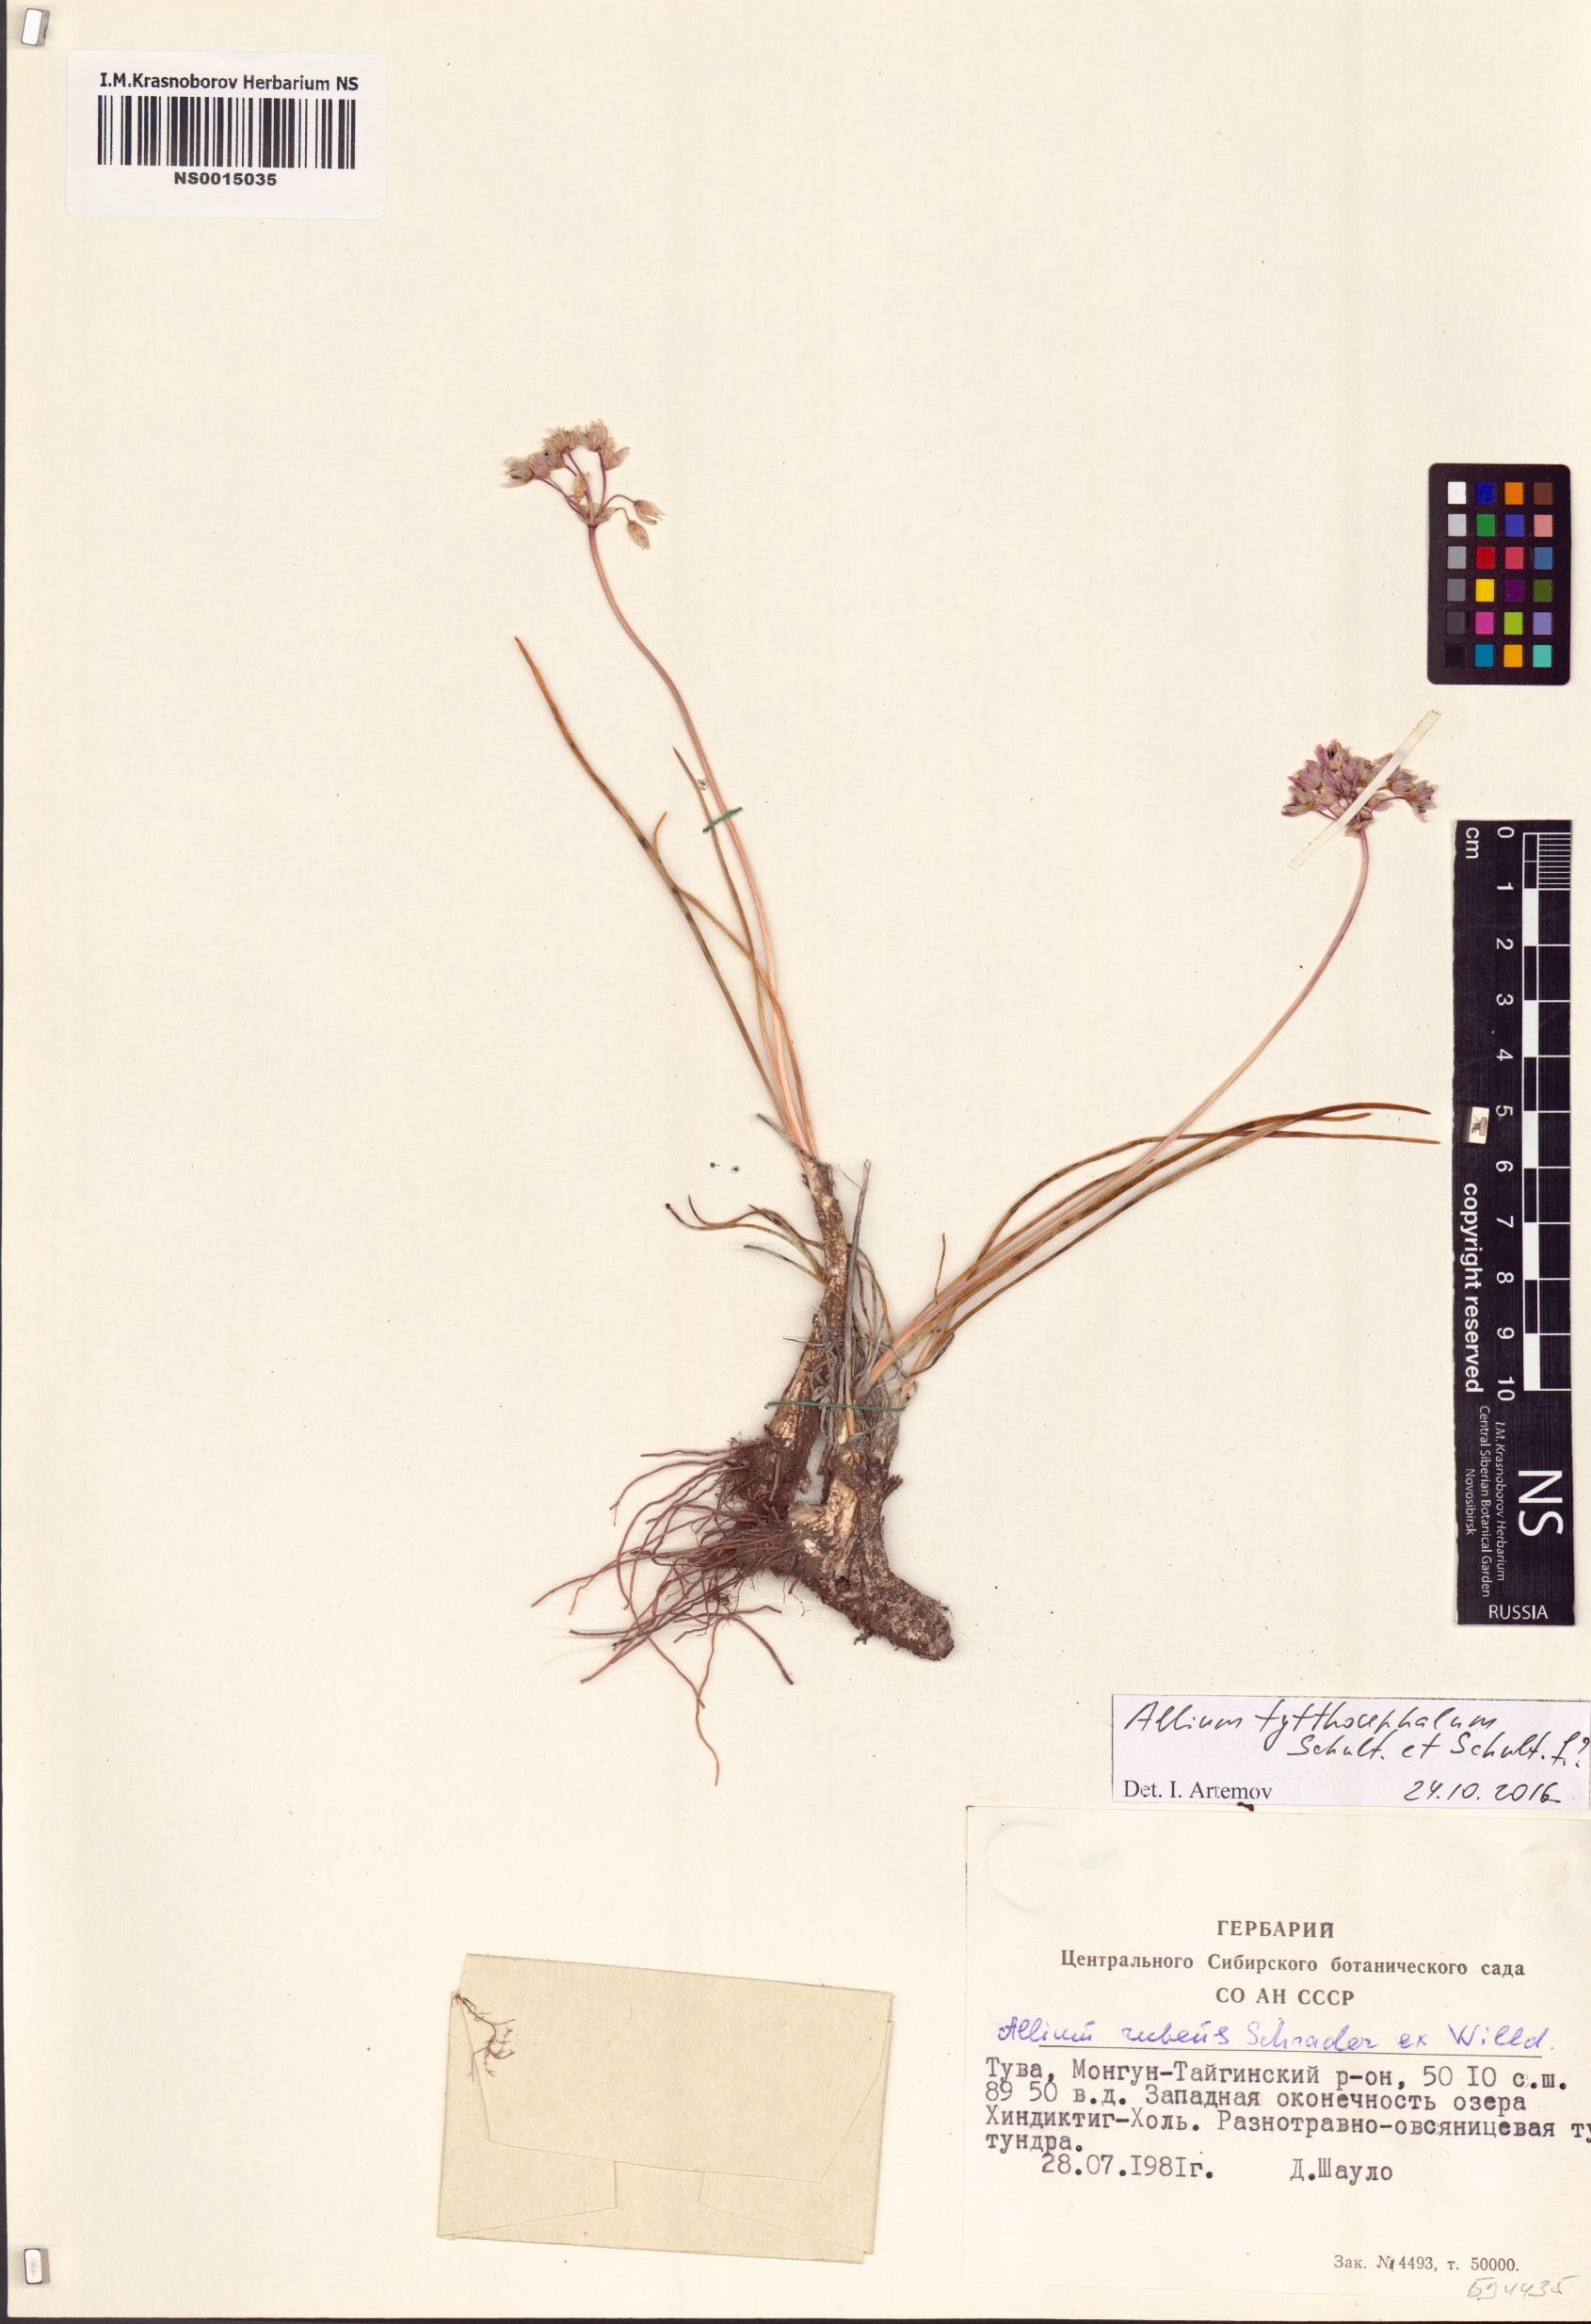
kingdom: Plantae
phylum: Tracheophyta
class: Liliopsida
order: Asparagales
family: Amaryllidaceae
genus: Allium
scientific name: Allium tytthocephalum
